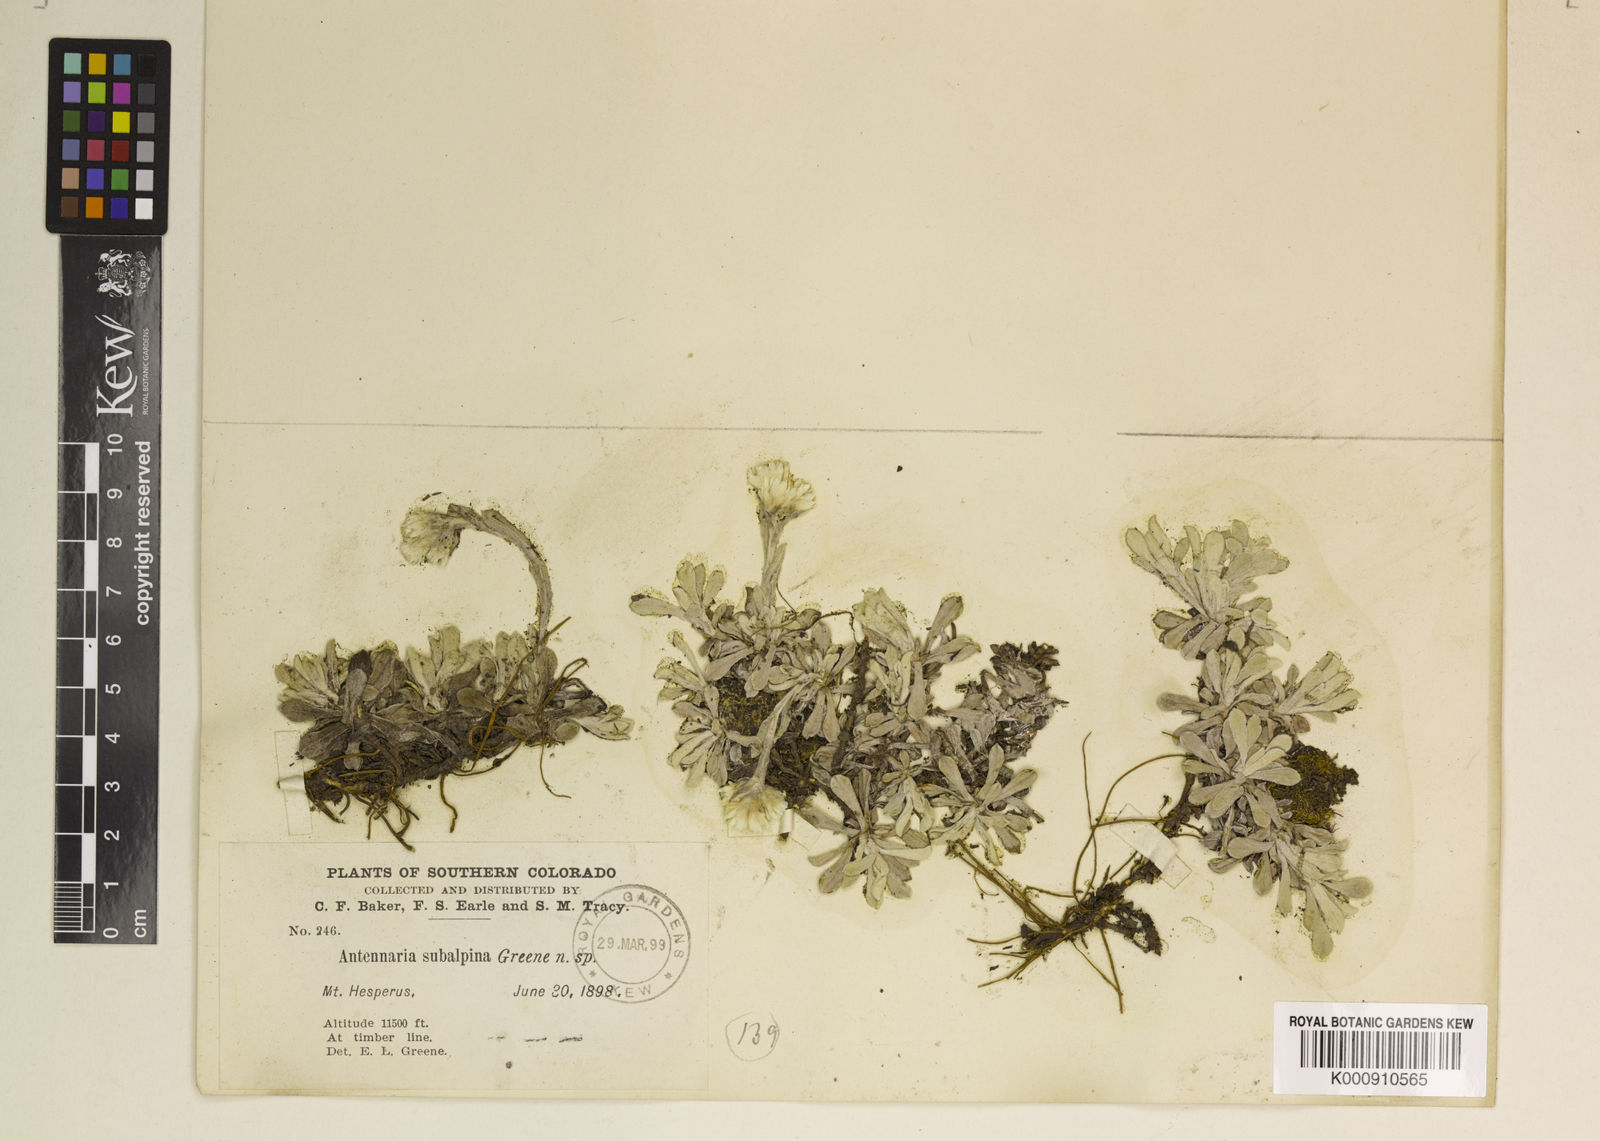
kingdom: Plantae
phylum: Tracheophyta
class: Magnoliopsida
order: Asterales
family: Asteraceae
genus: Antennaria
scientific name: Antennaria
